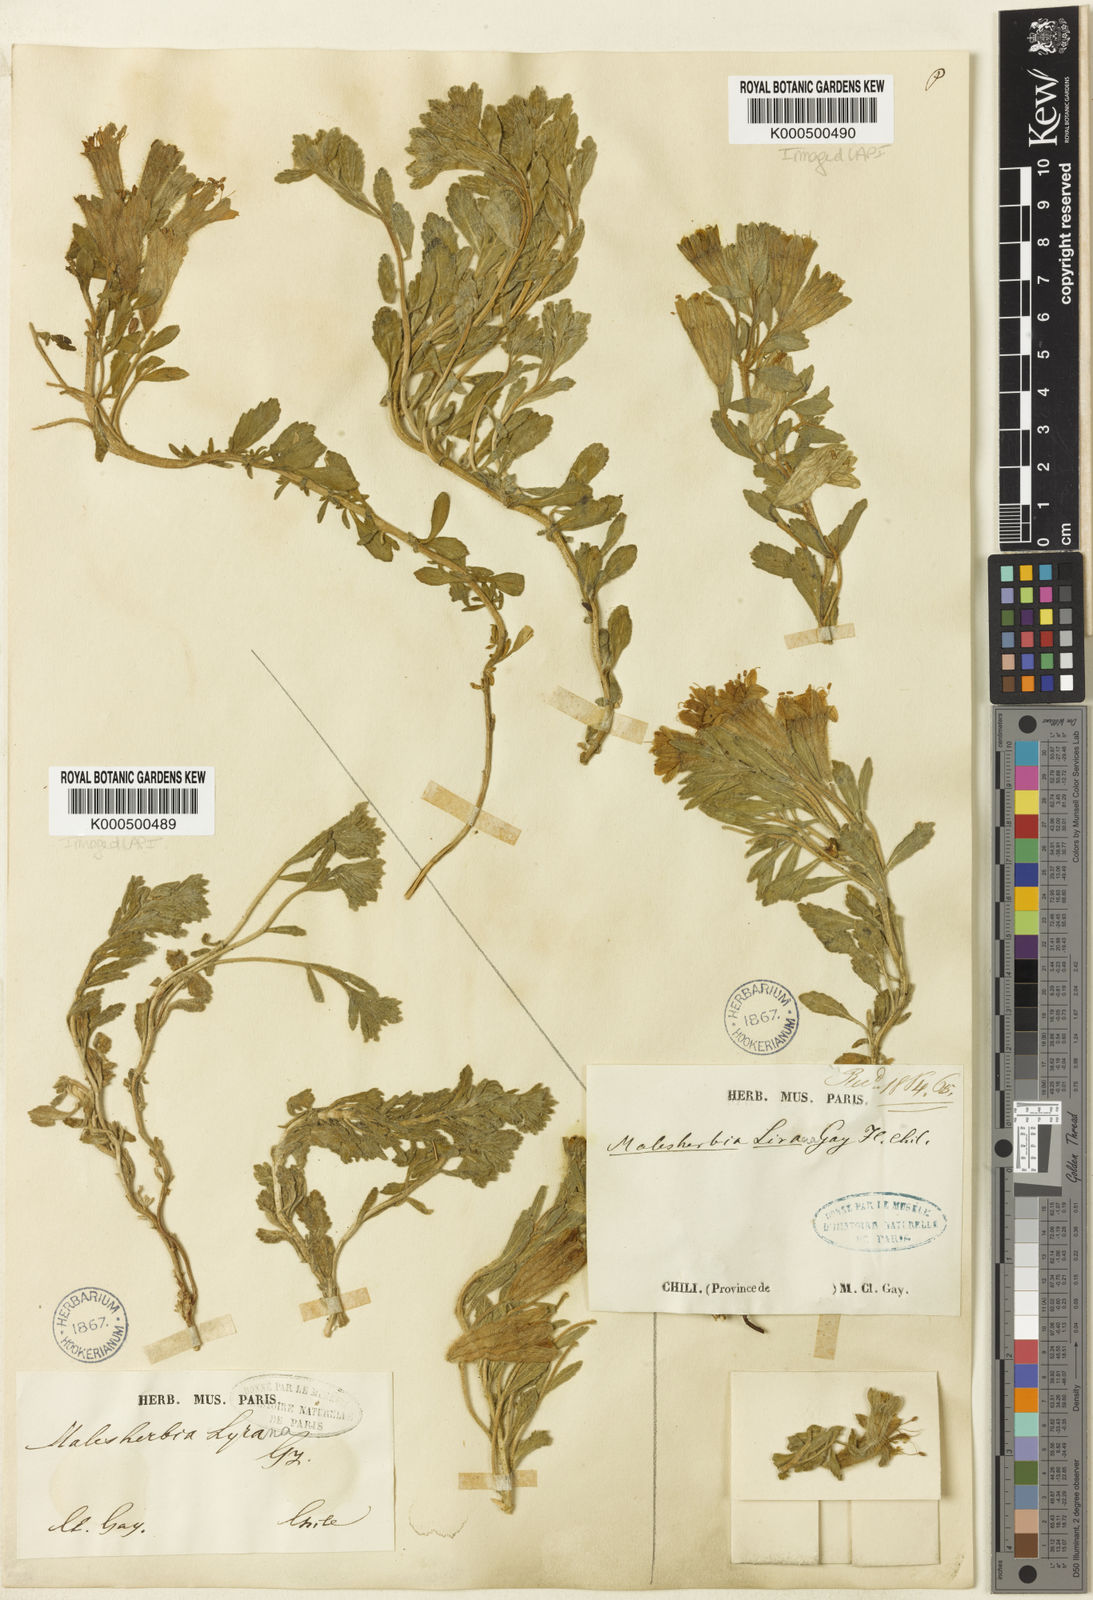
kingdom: Plantae
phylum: Tracheophyta
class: Magnoliopsida
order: Malpighiales
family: Malesherbiaceae
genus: Malesherbia
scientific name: Malesherbia lirana
